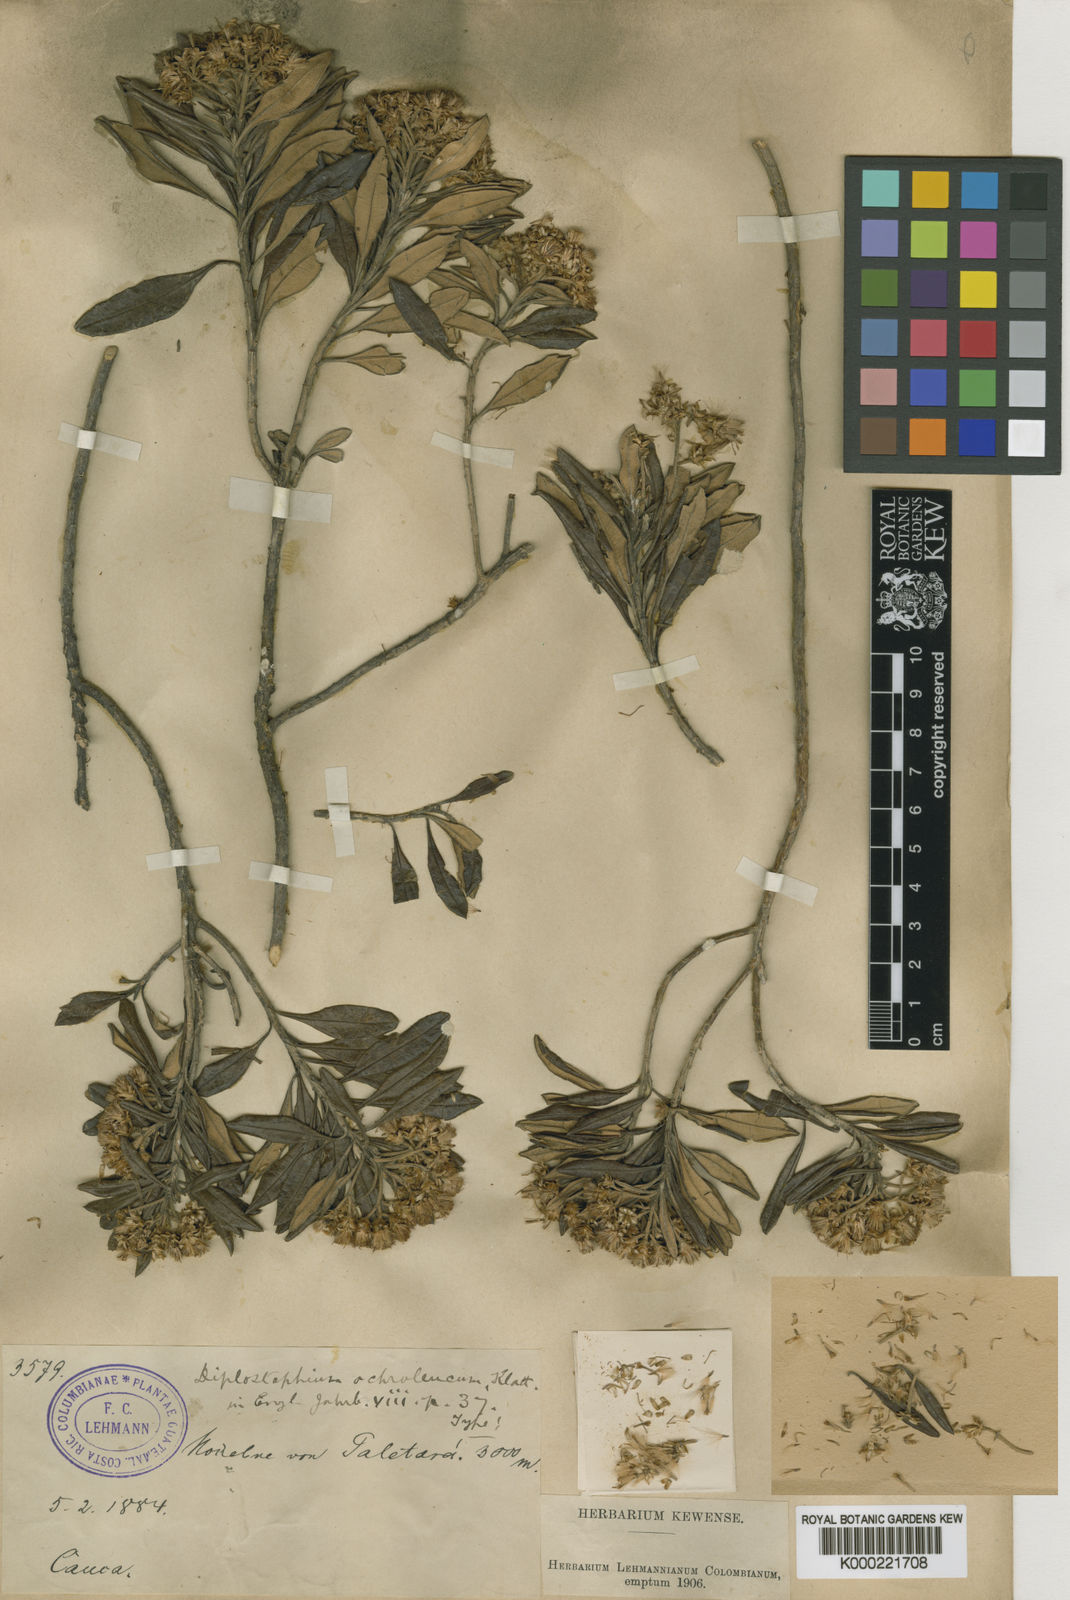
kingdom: Plantae
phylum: Tracheophyta
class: Magnoliopsida
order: Asterales
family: Asteraceae
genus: Linochilus
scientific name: Linochilus floribundus
